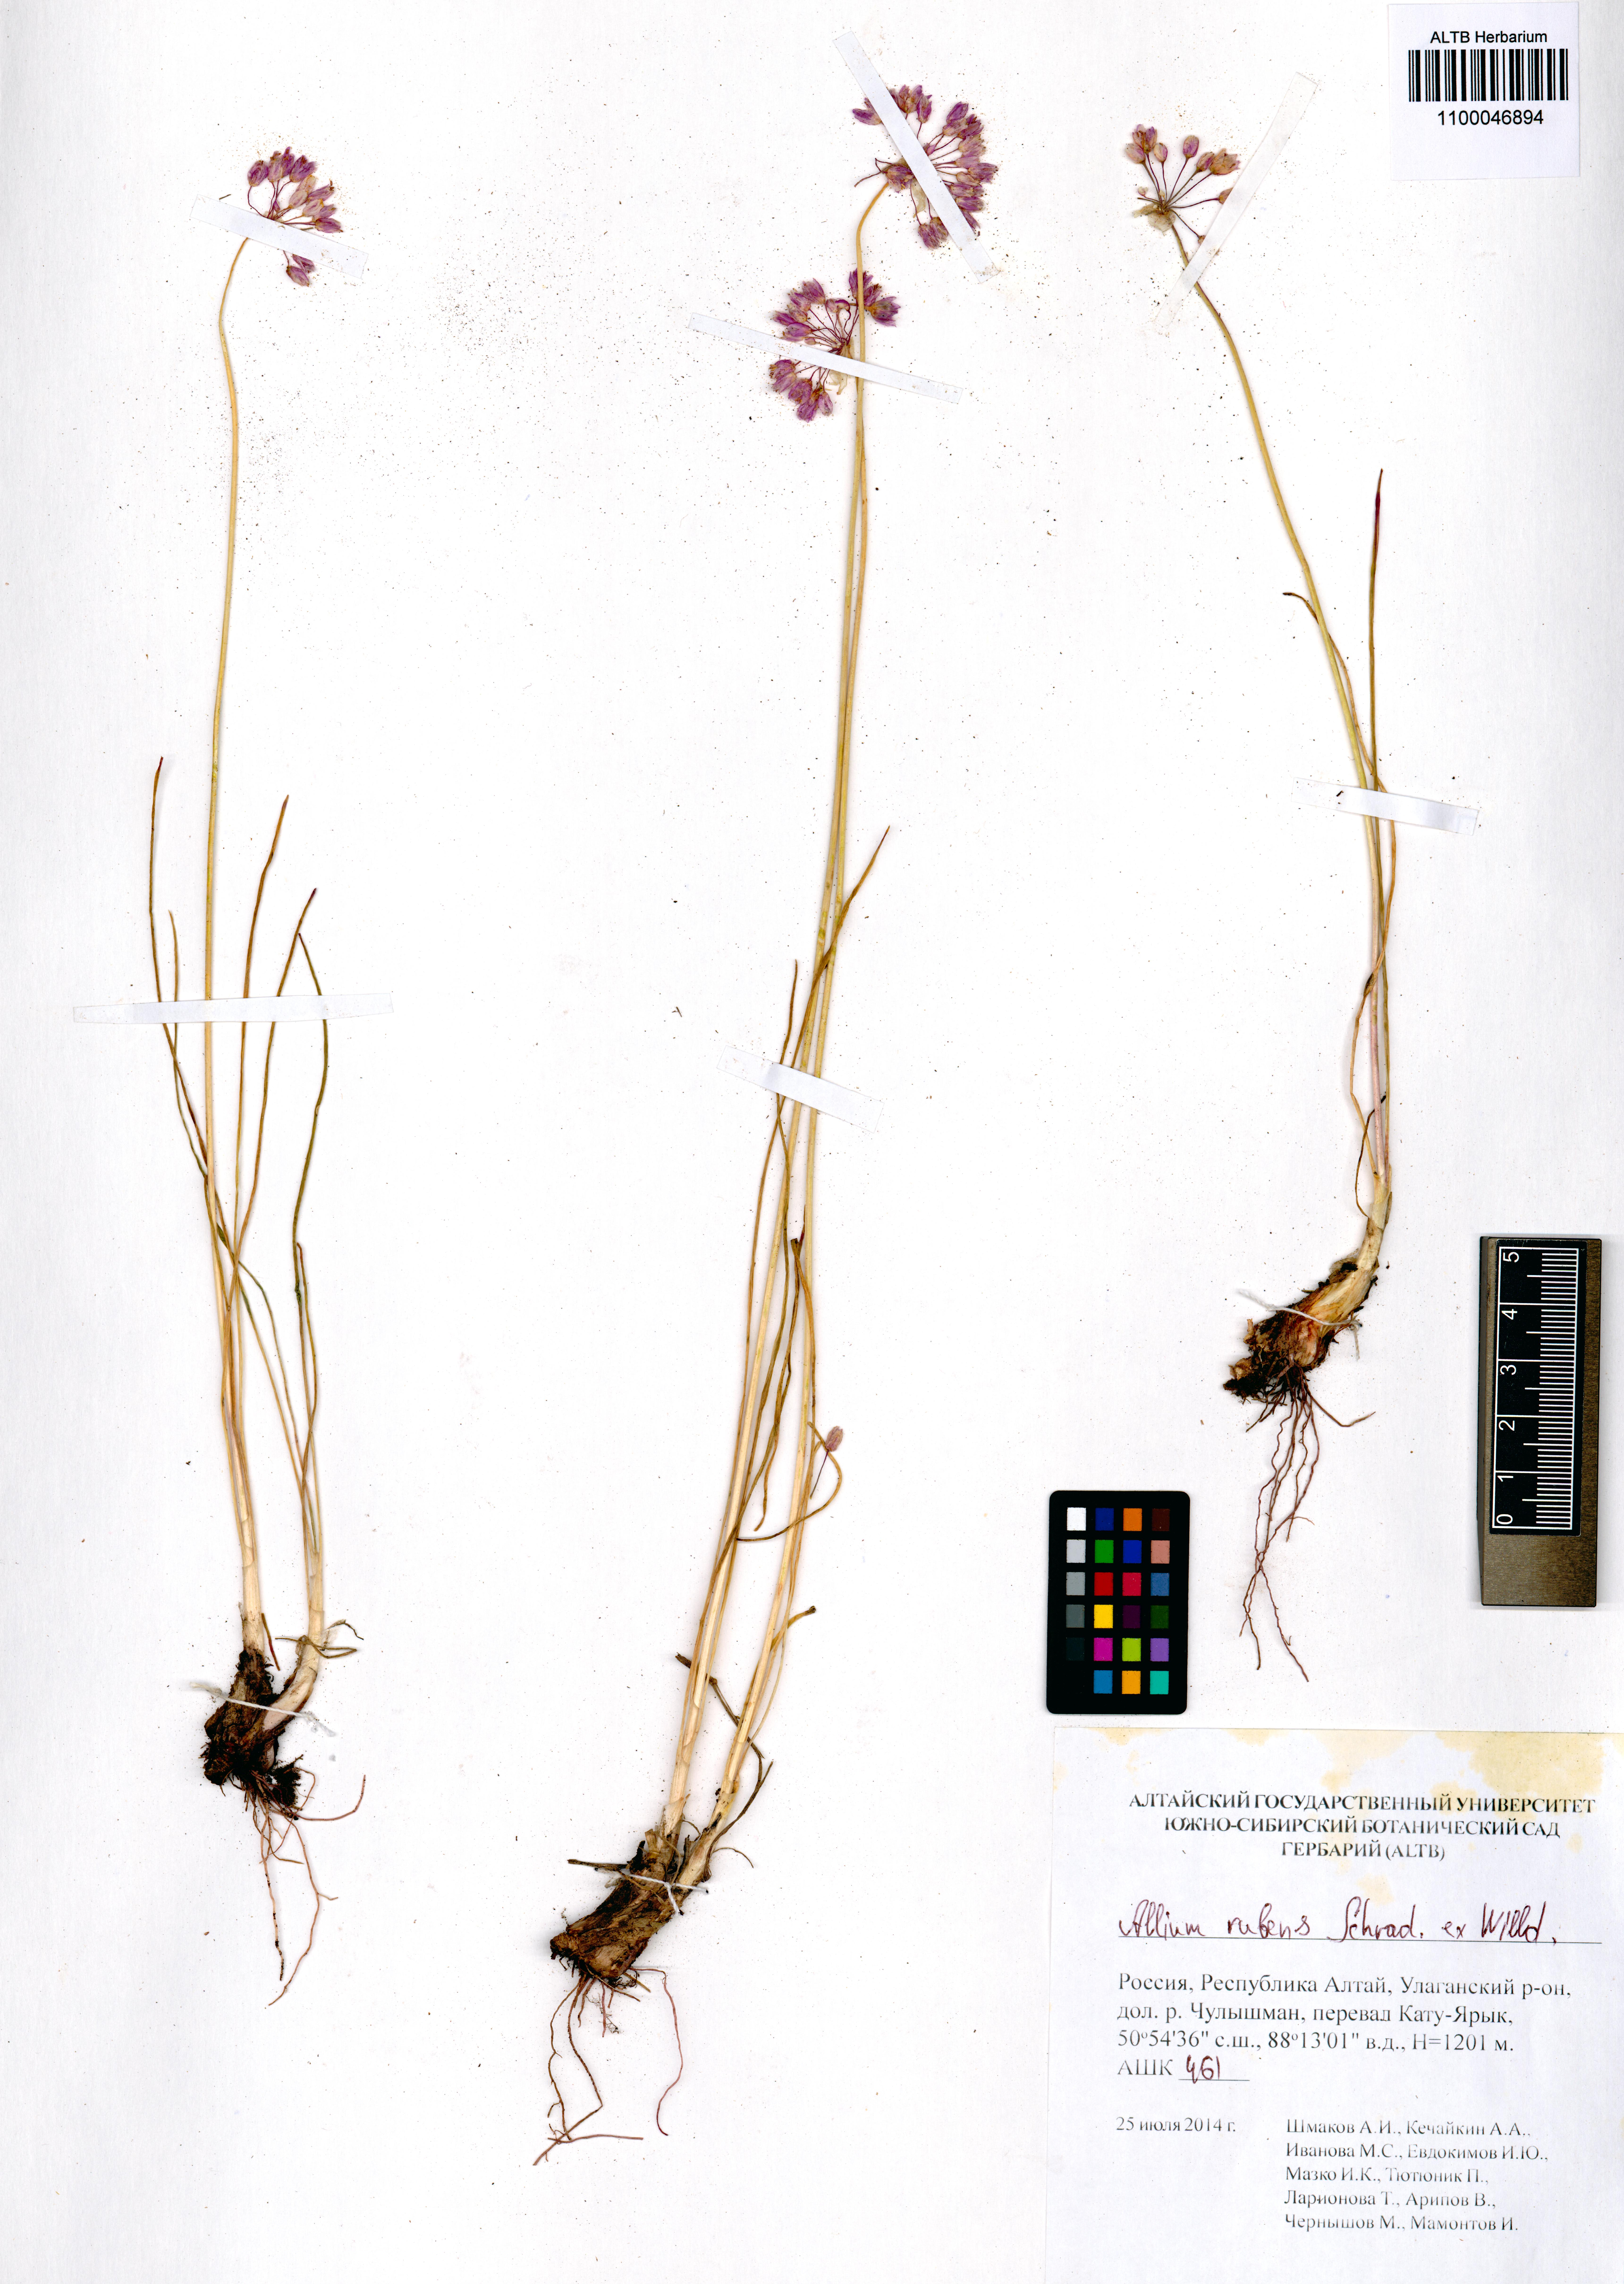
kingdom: Plantae
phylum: Tracheophyta
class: Liliopsida
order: Asparagales
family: Amaryllidaceae
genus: Allium
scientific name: Allium rubens
